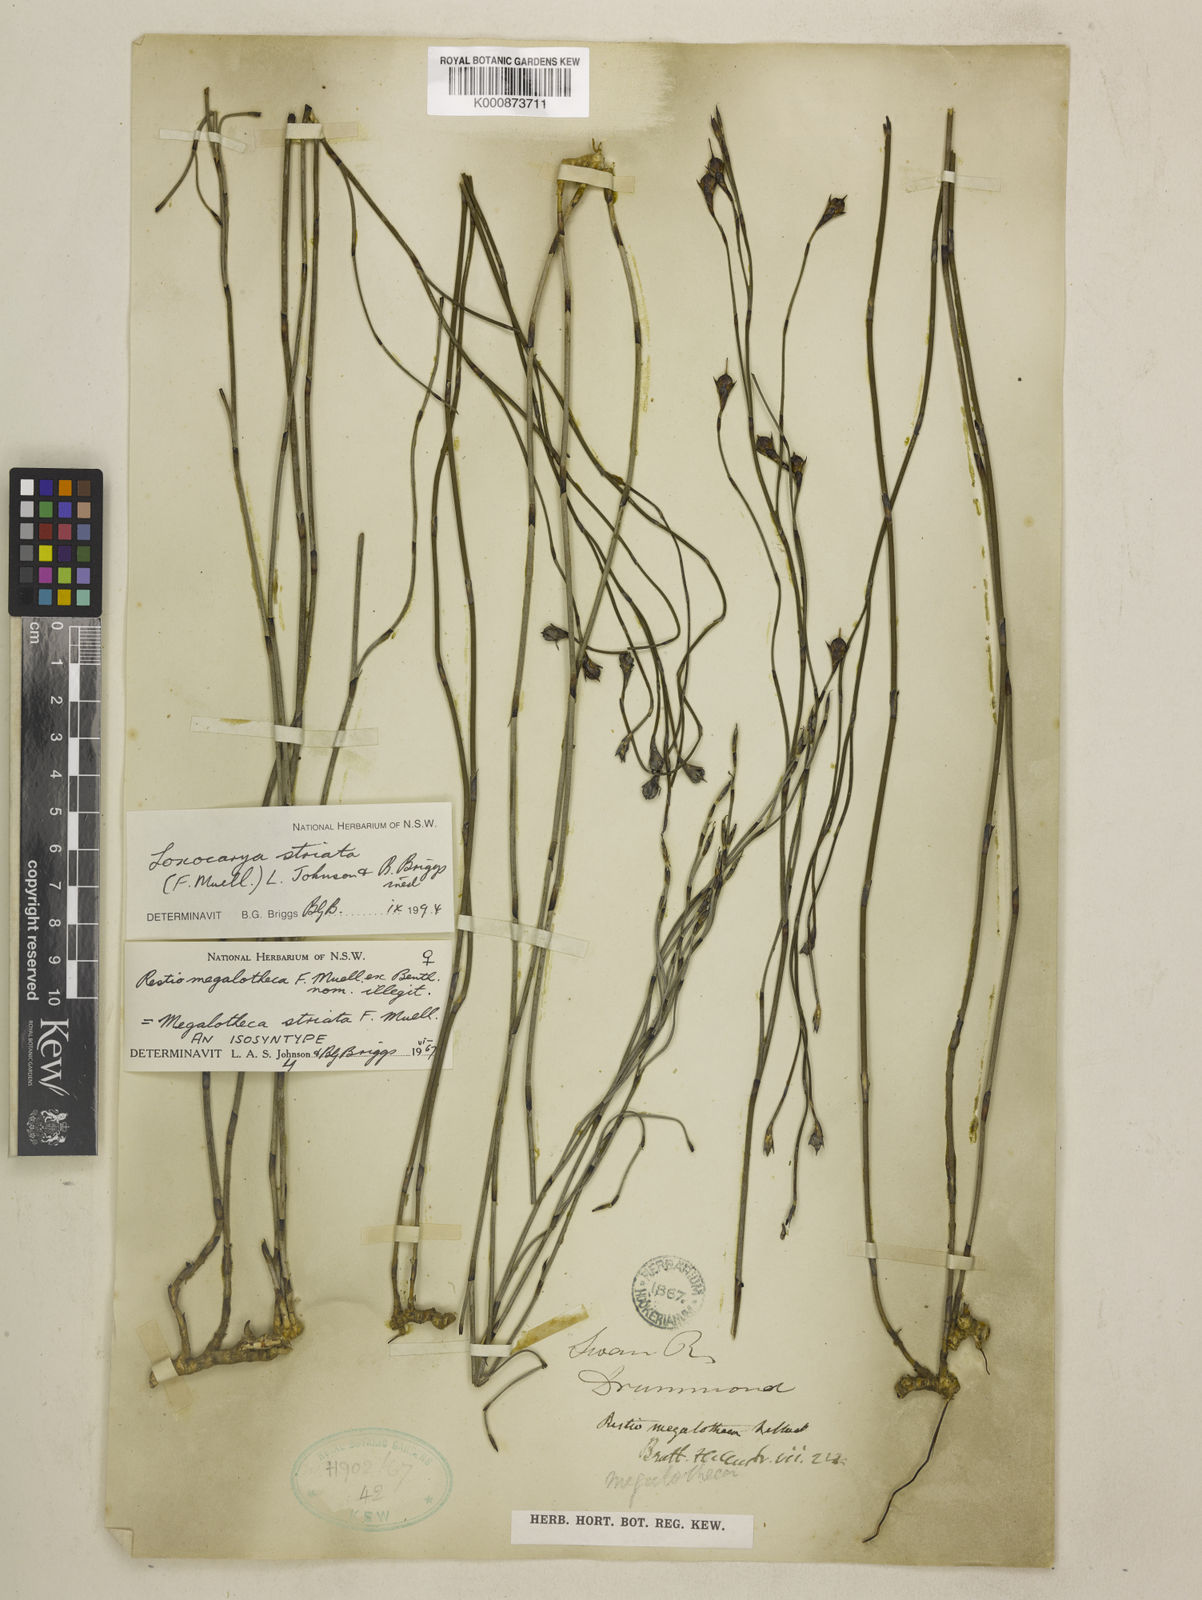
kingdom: Plantae
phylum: Tracheophyta
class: Liliopsida
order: Poales
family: Restionaceae
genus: Loxocarya
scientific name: Loxocarya striata
